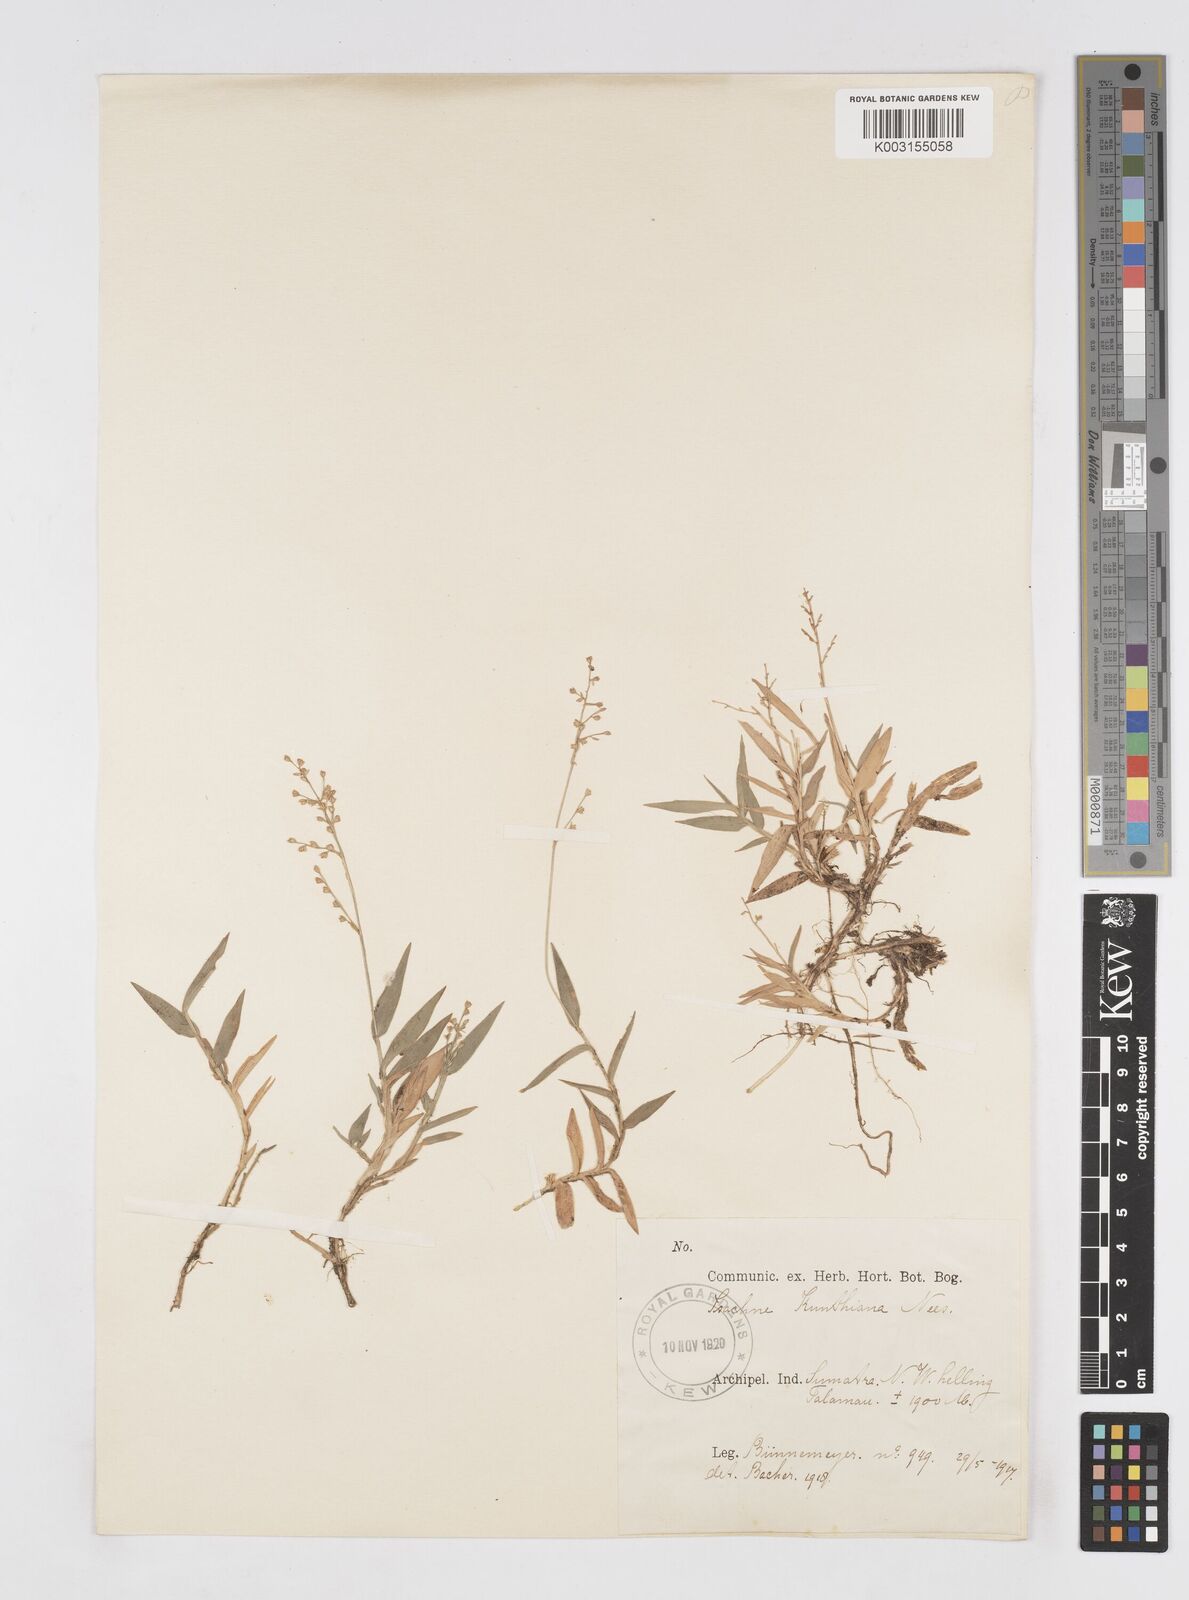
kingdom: Plantae
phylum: Tracheophyta
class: Liliopsida
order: Poales
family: Poaceae
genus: Isachne
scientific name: Isachne pangerangensis
